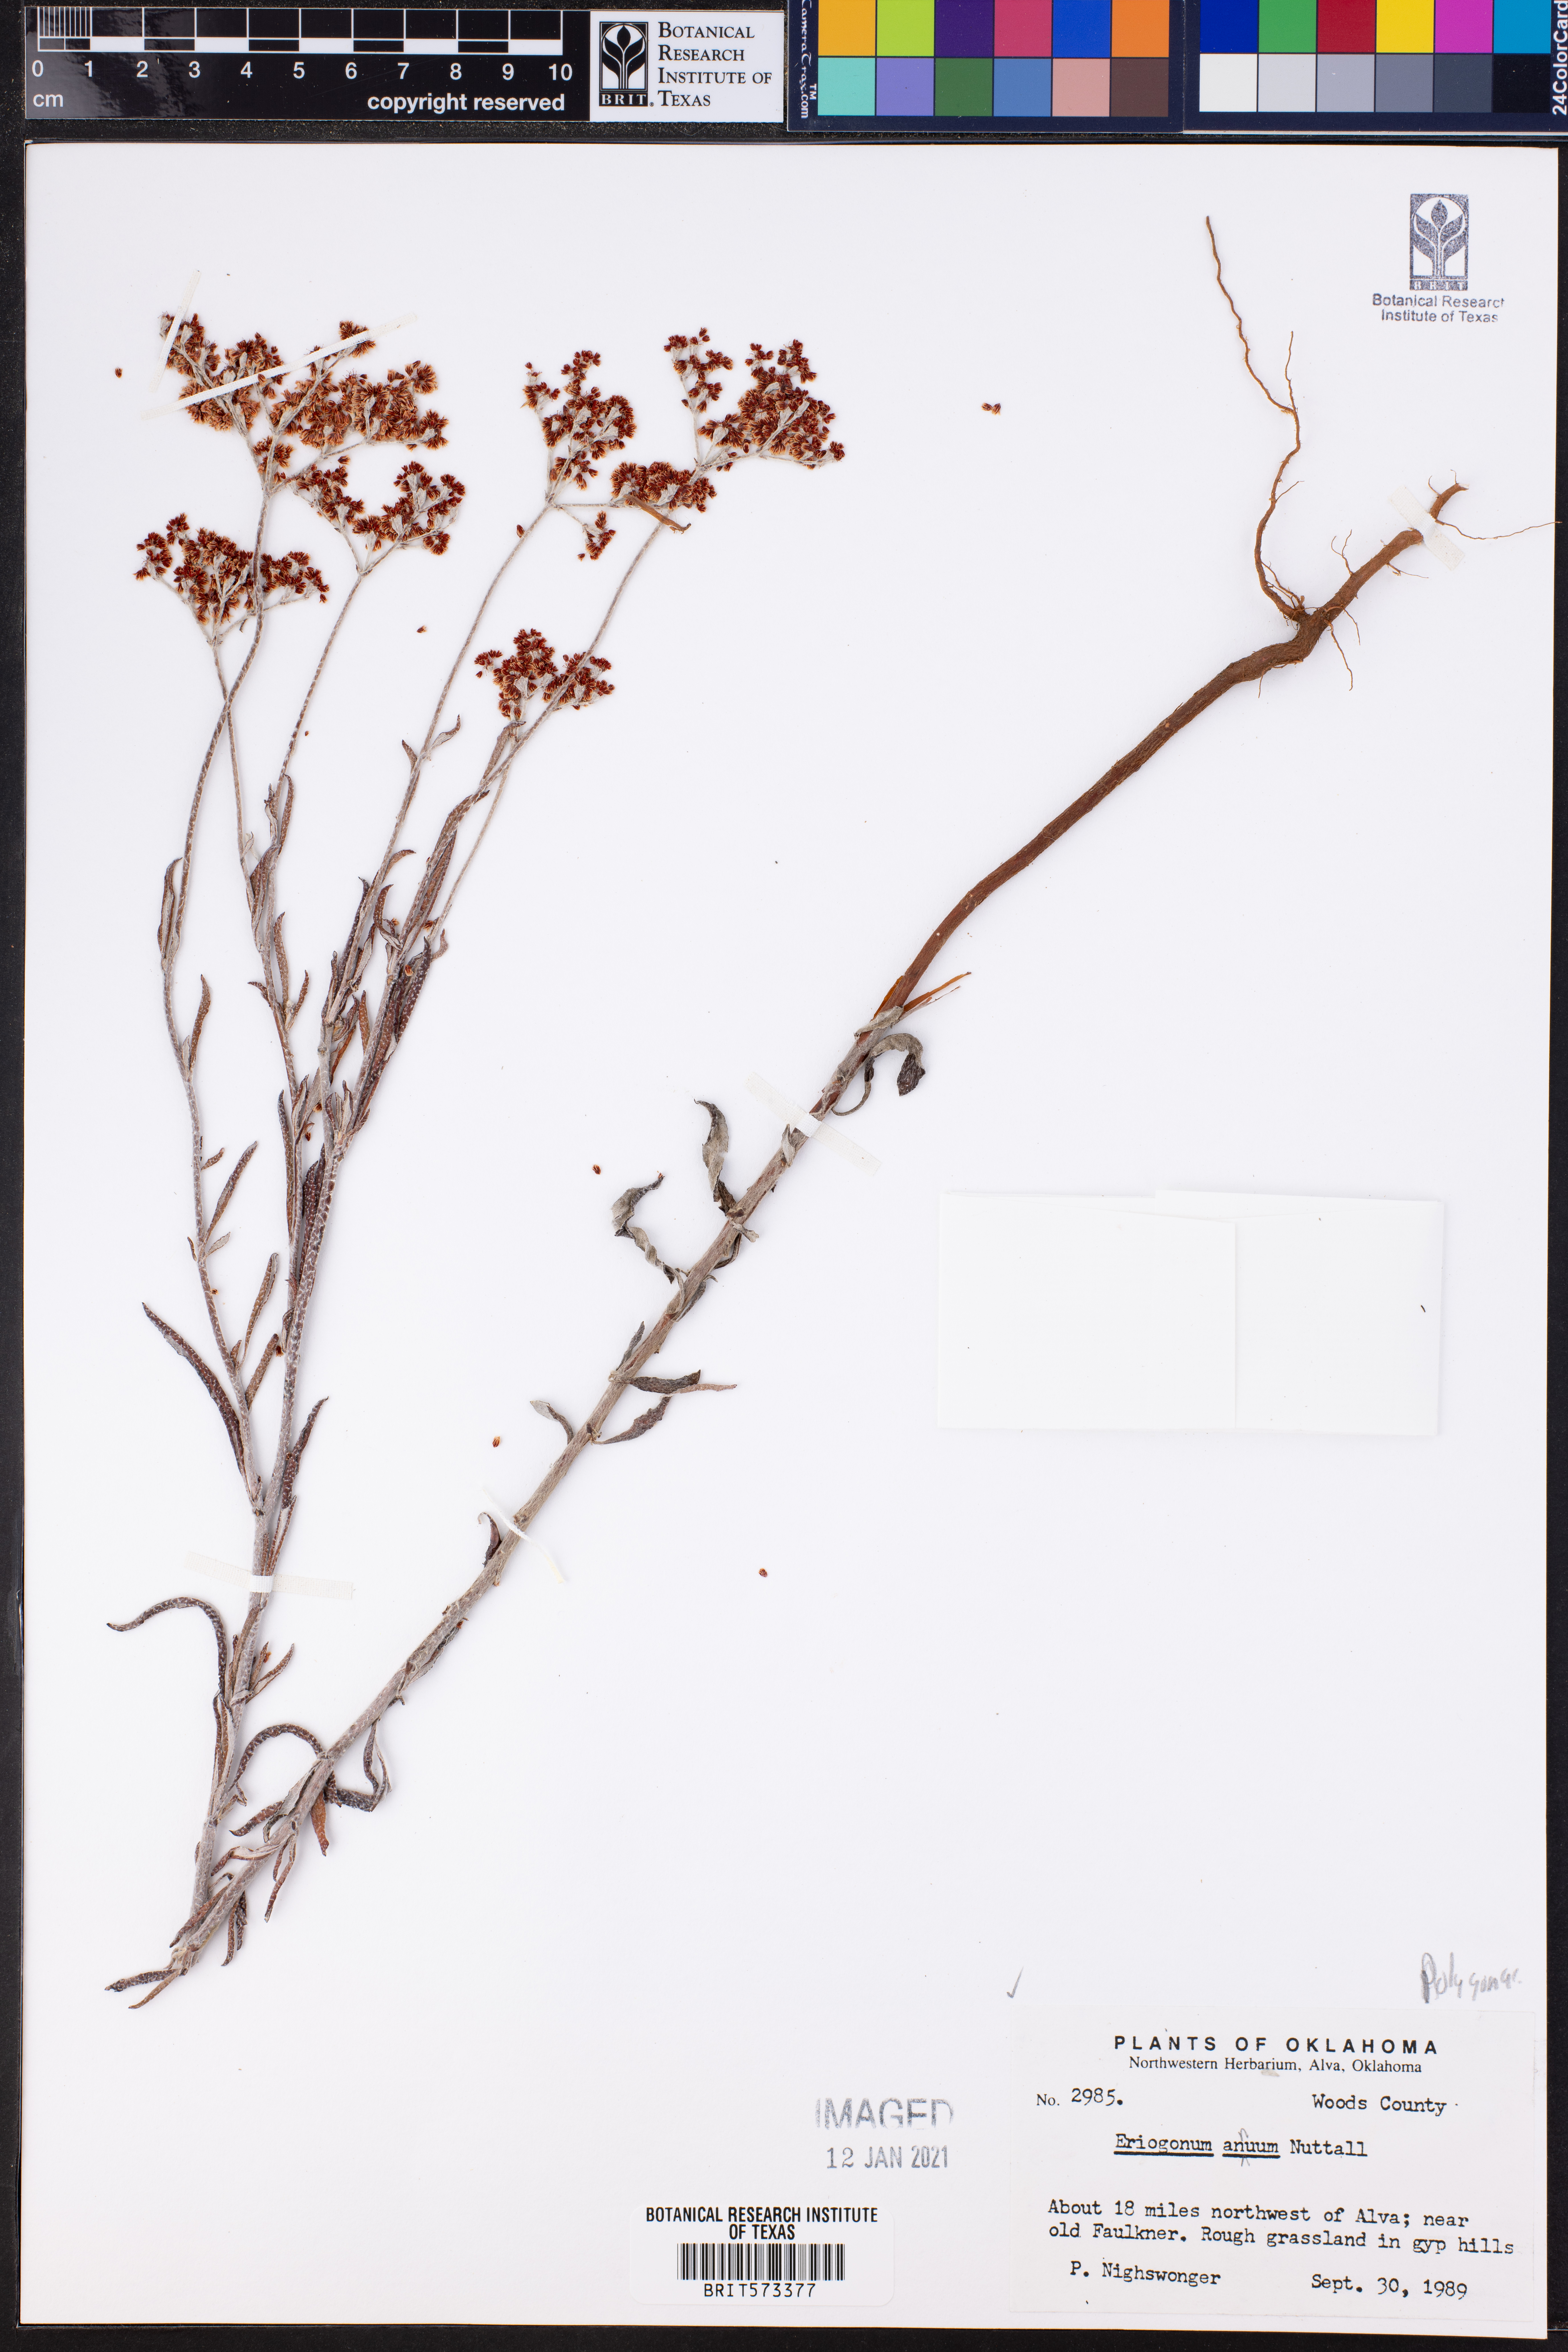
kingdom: Plantae
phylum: Tracheophyta
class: Magnoliopsida
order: Caryophyllales
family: Polygonaceae
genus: Eriogonum
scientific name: Eriogonum annuum
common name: Annual wild buckwheat
